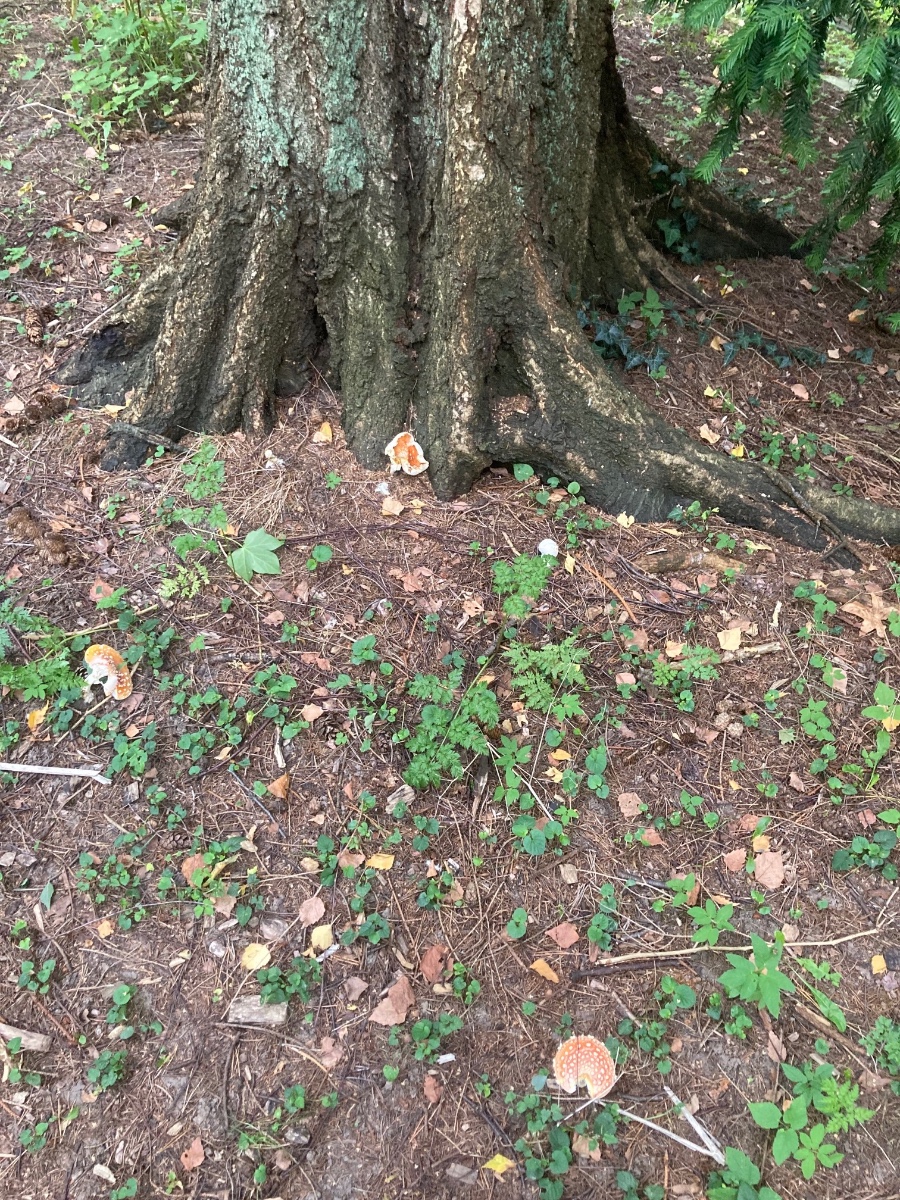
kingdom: Fungi
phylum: Basidiomycota
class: Agaricomycetes
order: Agaricales
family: Amanitaceae
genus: Amanita
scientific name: Amanita muscaria
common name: rød fluesvamp
